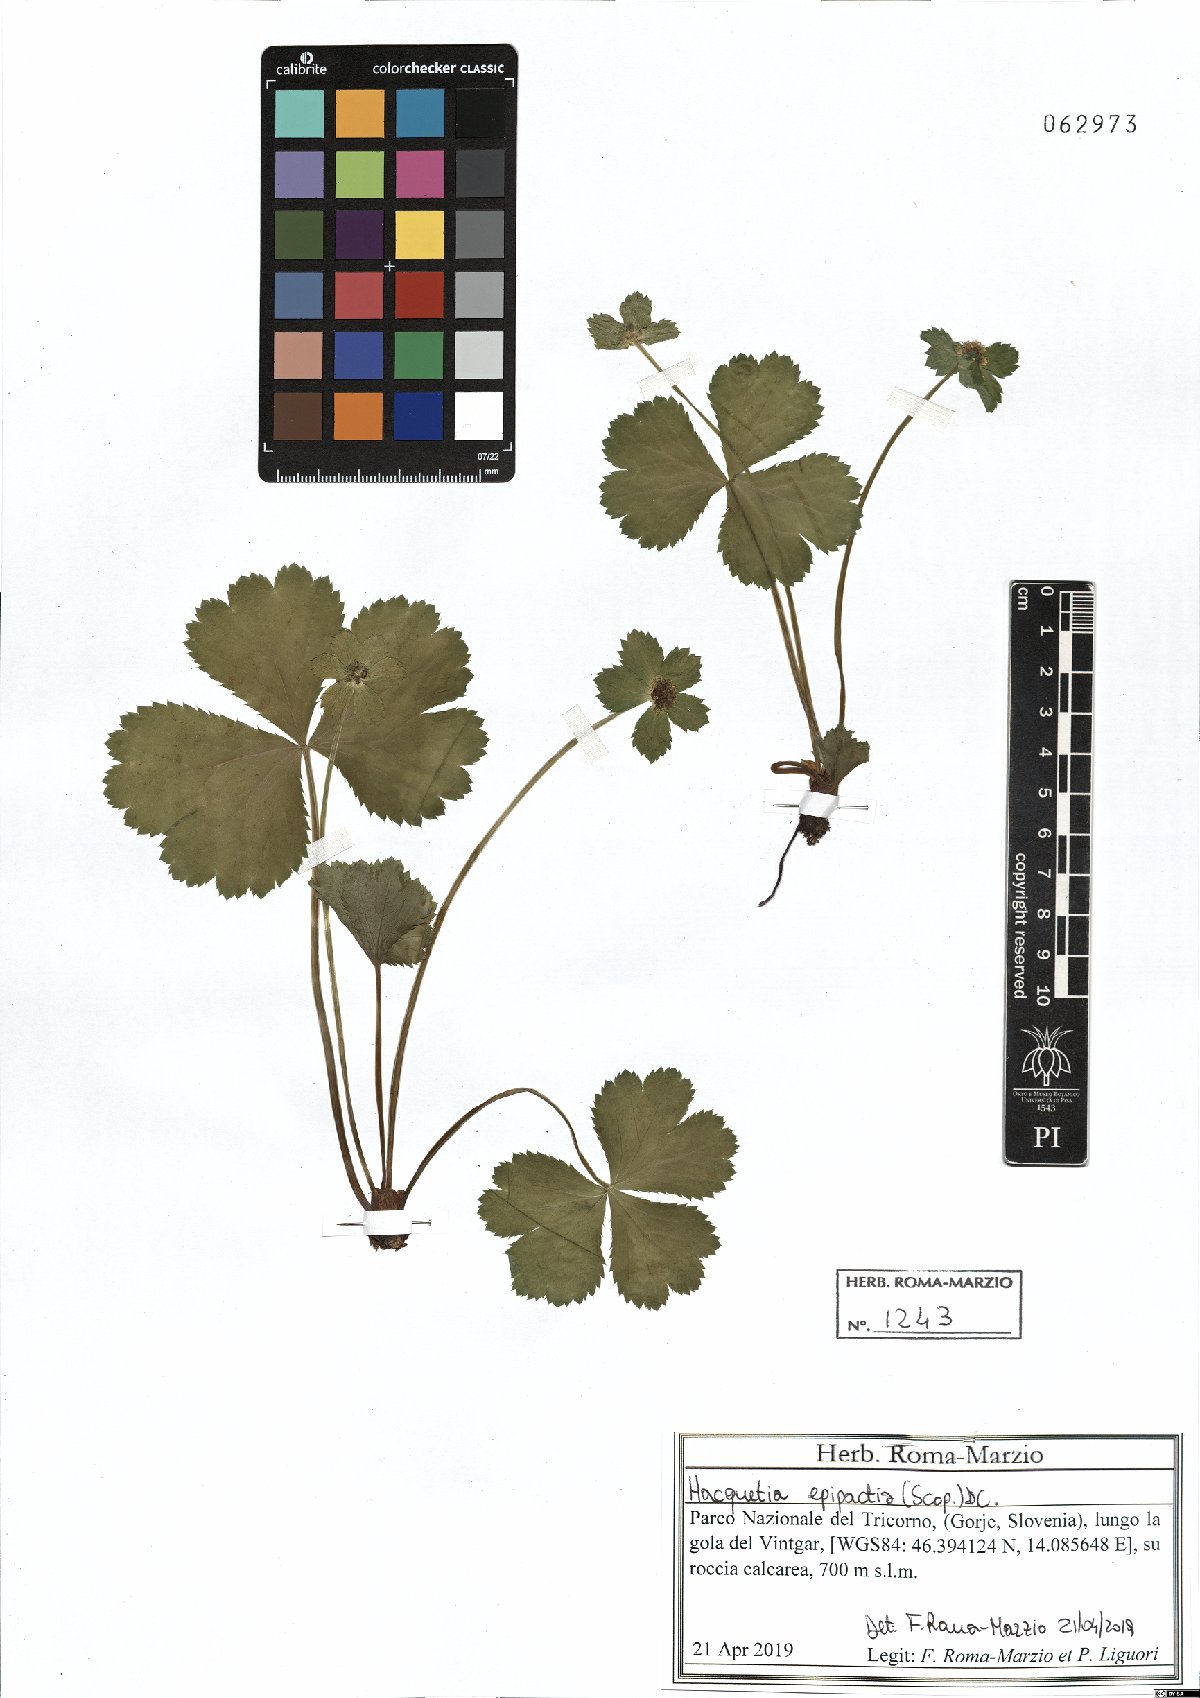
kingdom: Plantae
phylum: Tracheophyta
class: Magnoliopsida
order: Apiales
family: Apiaceae
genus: Sanicula
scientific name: Sanicula epipactis
